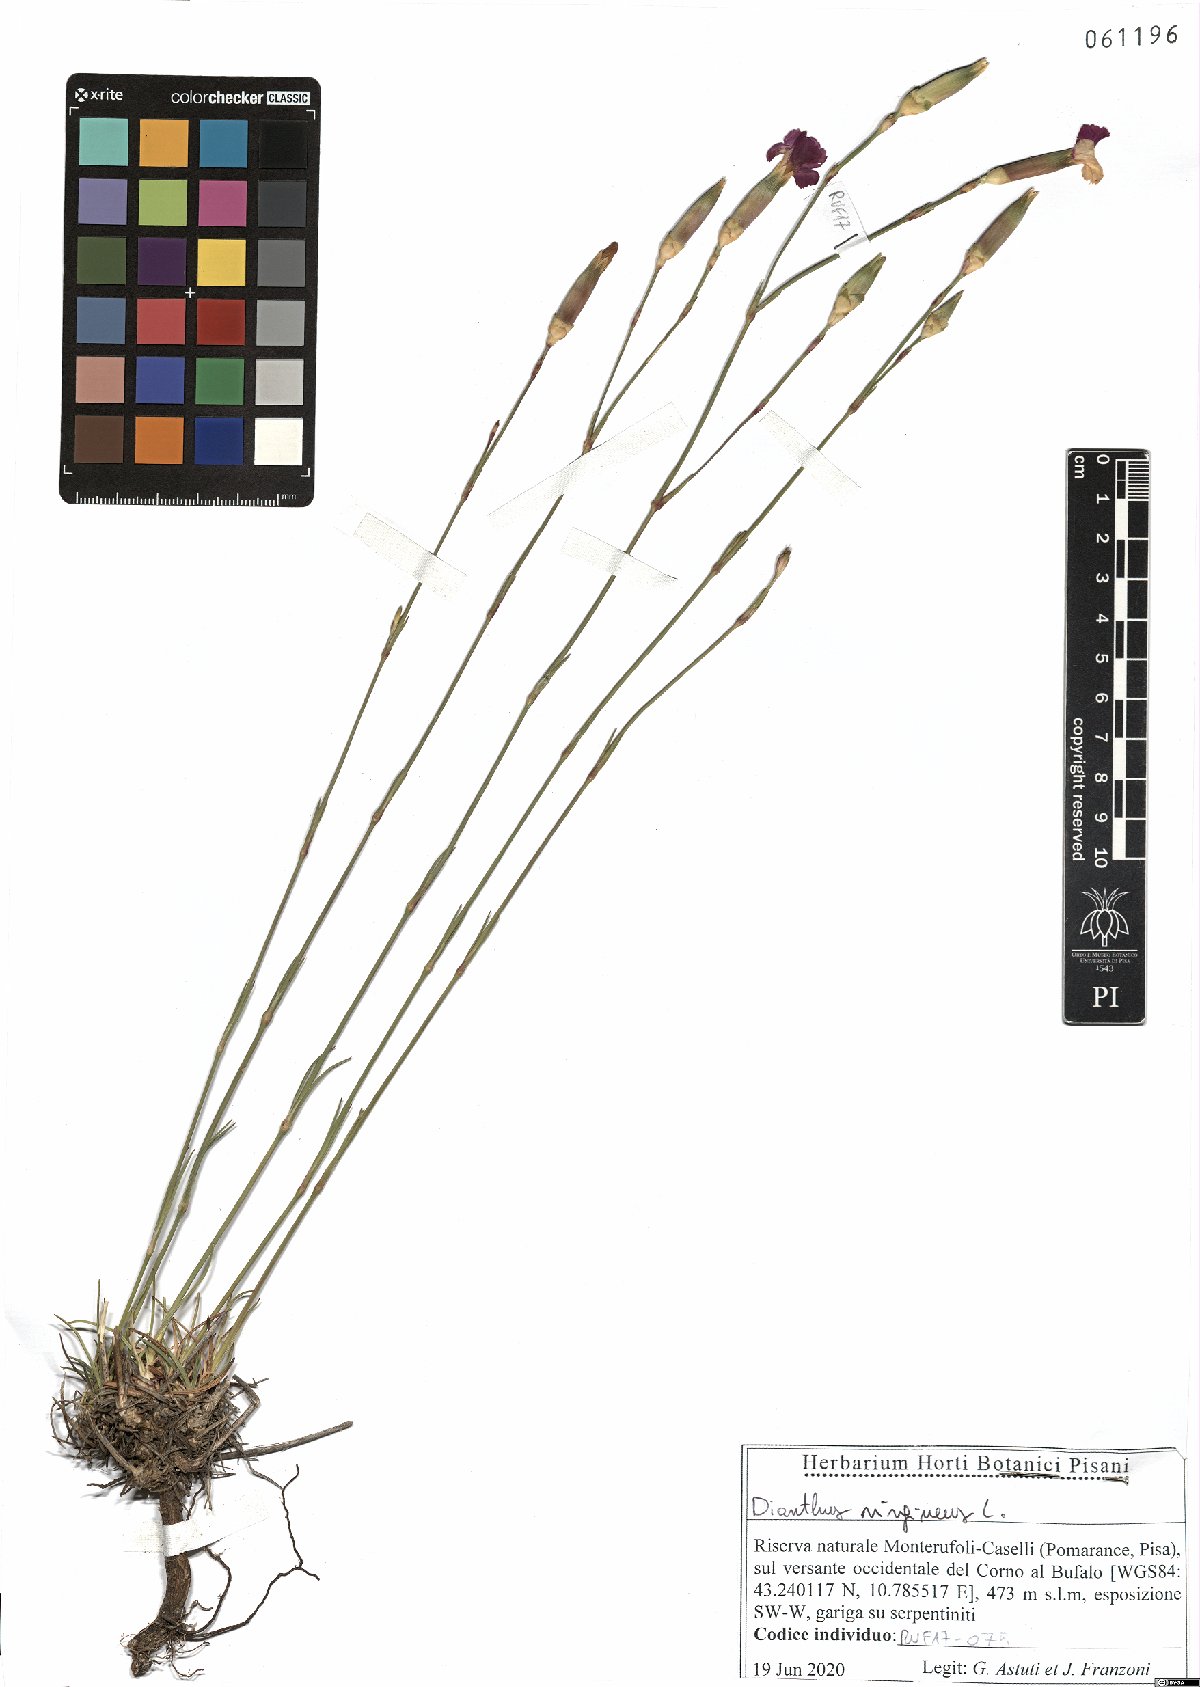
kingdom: Plantae
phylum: Tracheophyta
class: Magnoliopsida
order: Caryophyllales
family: Caryophyllaceae
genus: Dianthus
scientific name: Dianthus virgineus
